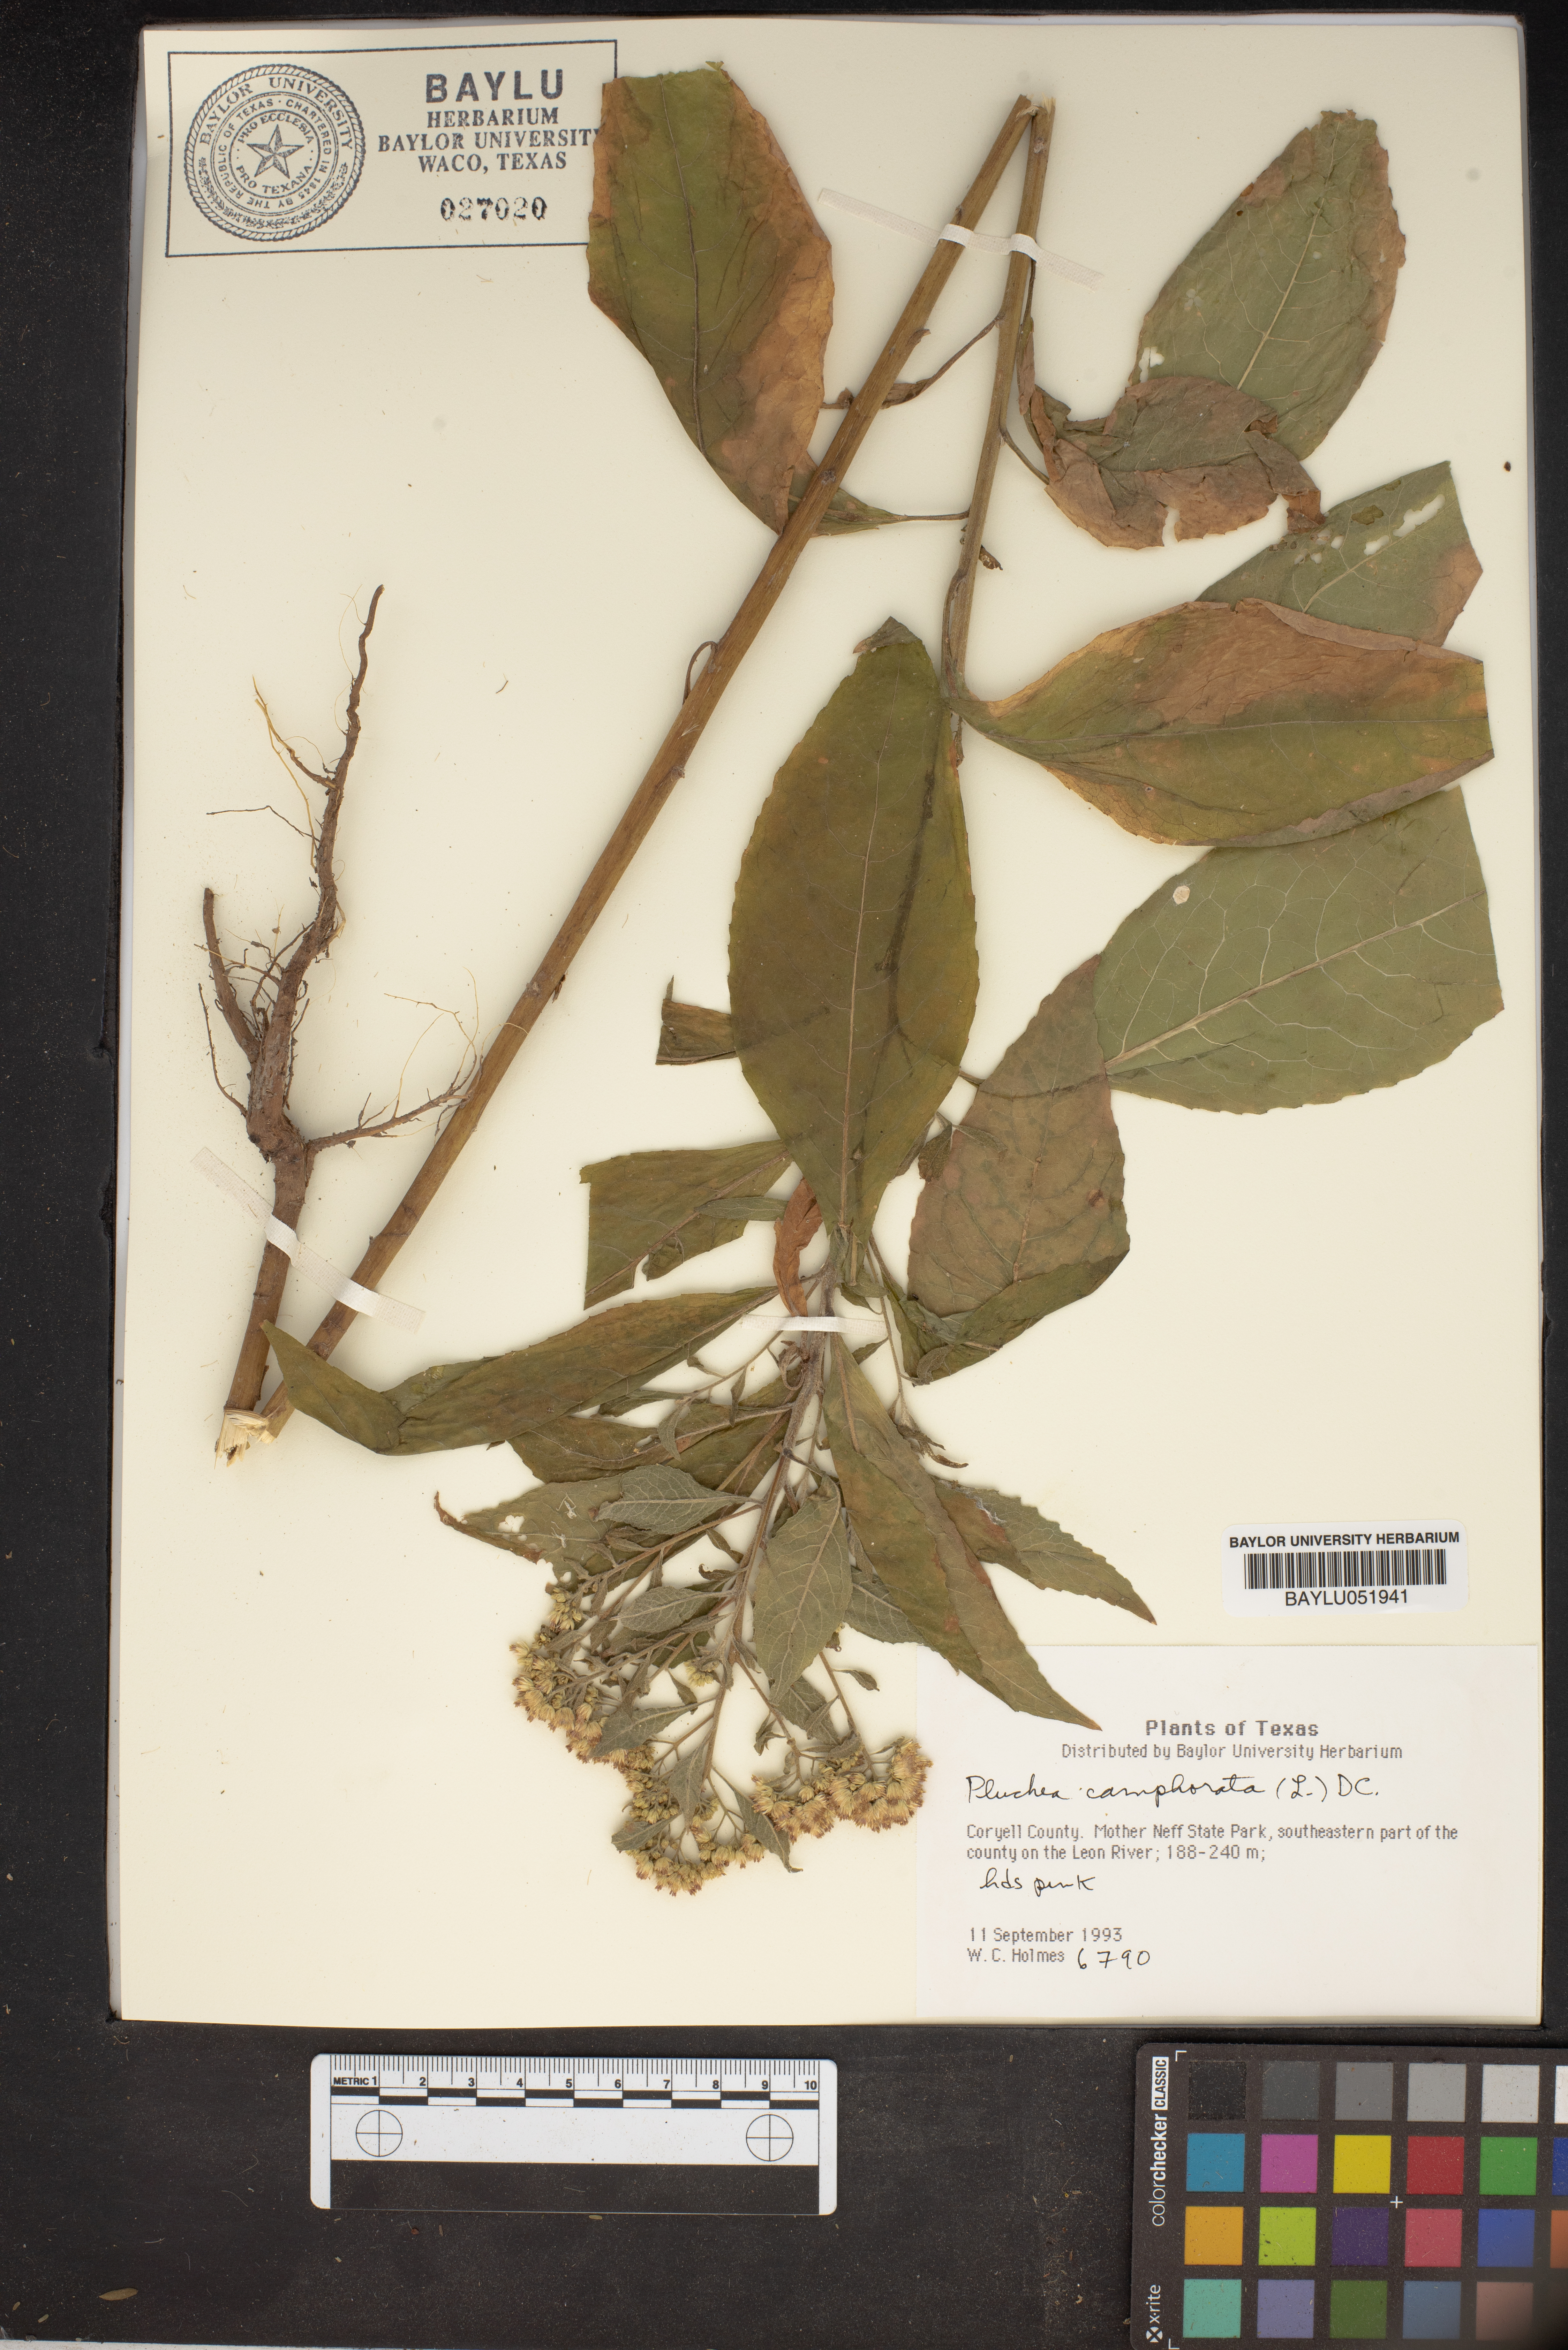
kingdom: Plantae
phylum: Tracheophyta
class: Magnoliopsida
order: Asterales
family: Asteraceae
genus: Pluchea
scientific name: Pluchea camphorata
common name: Camphor pluchea
